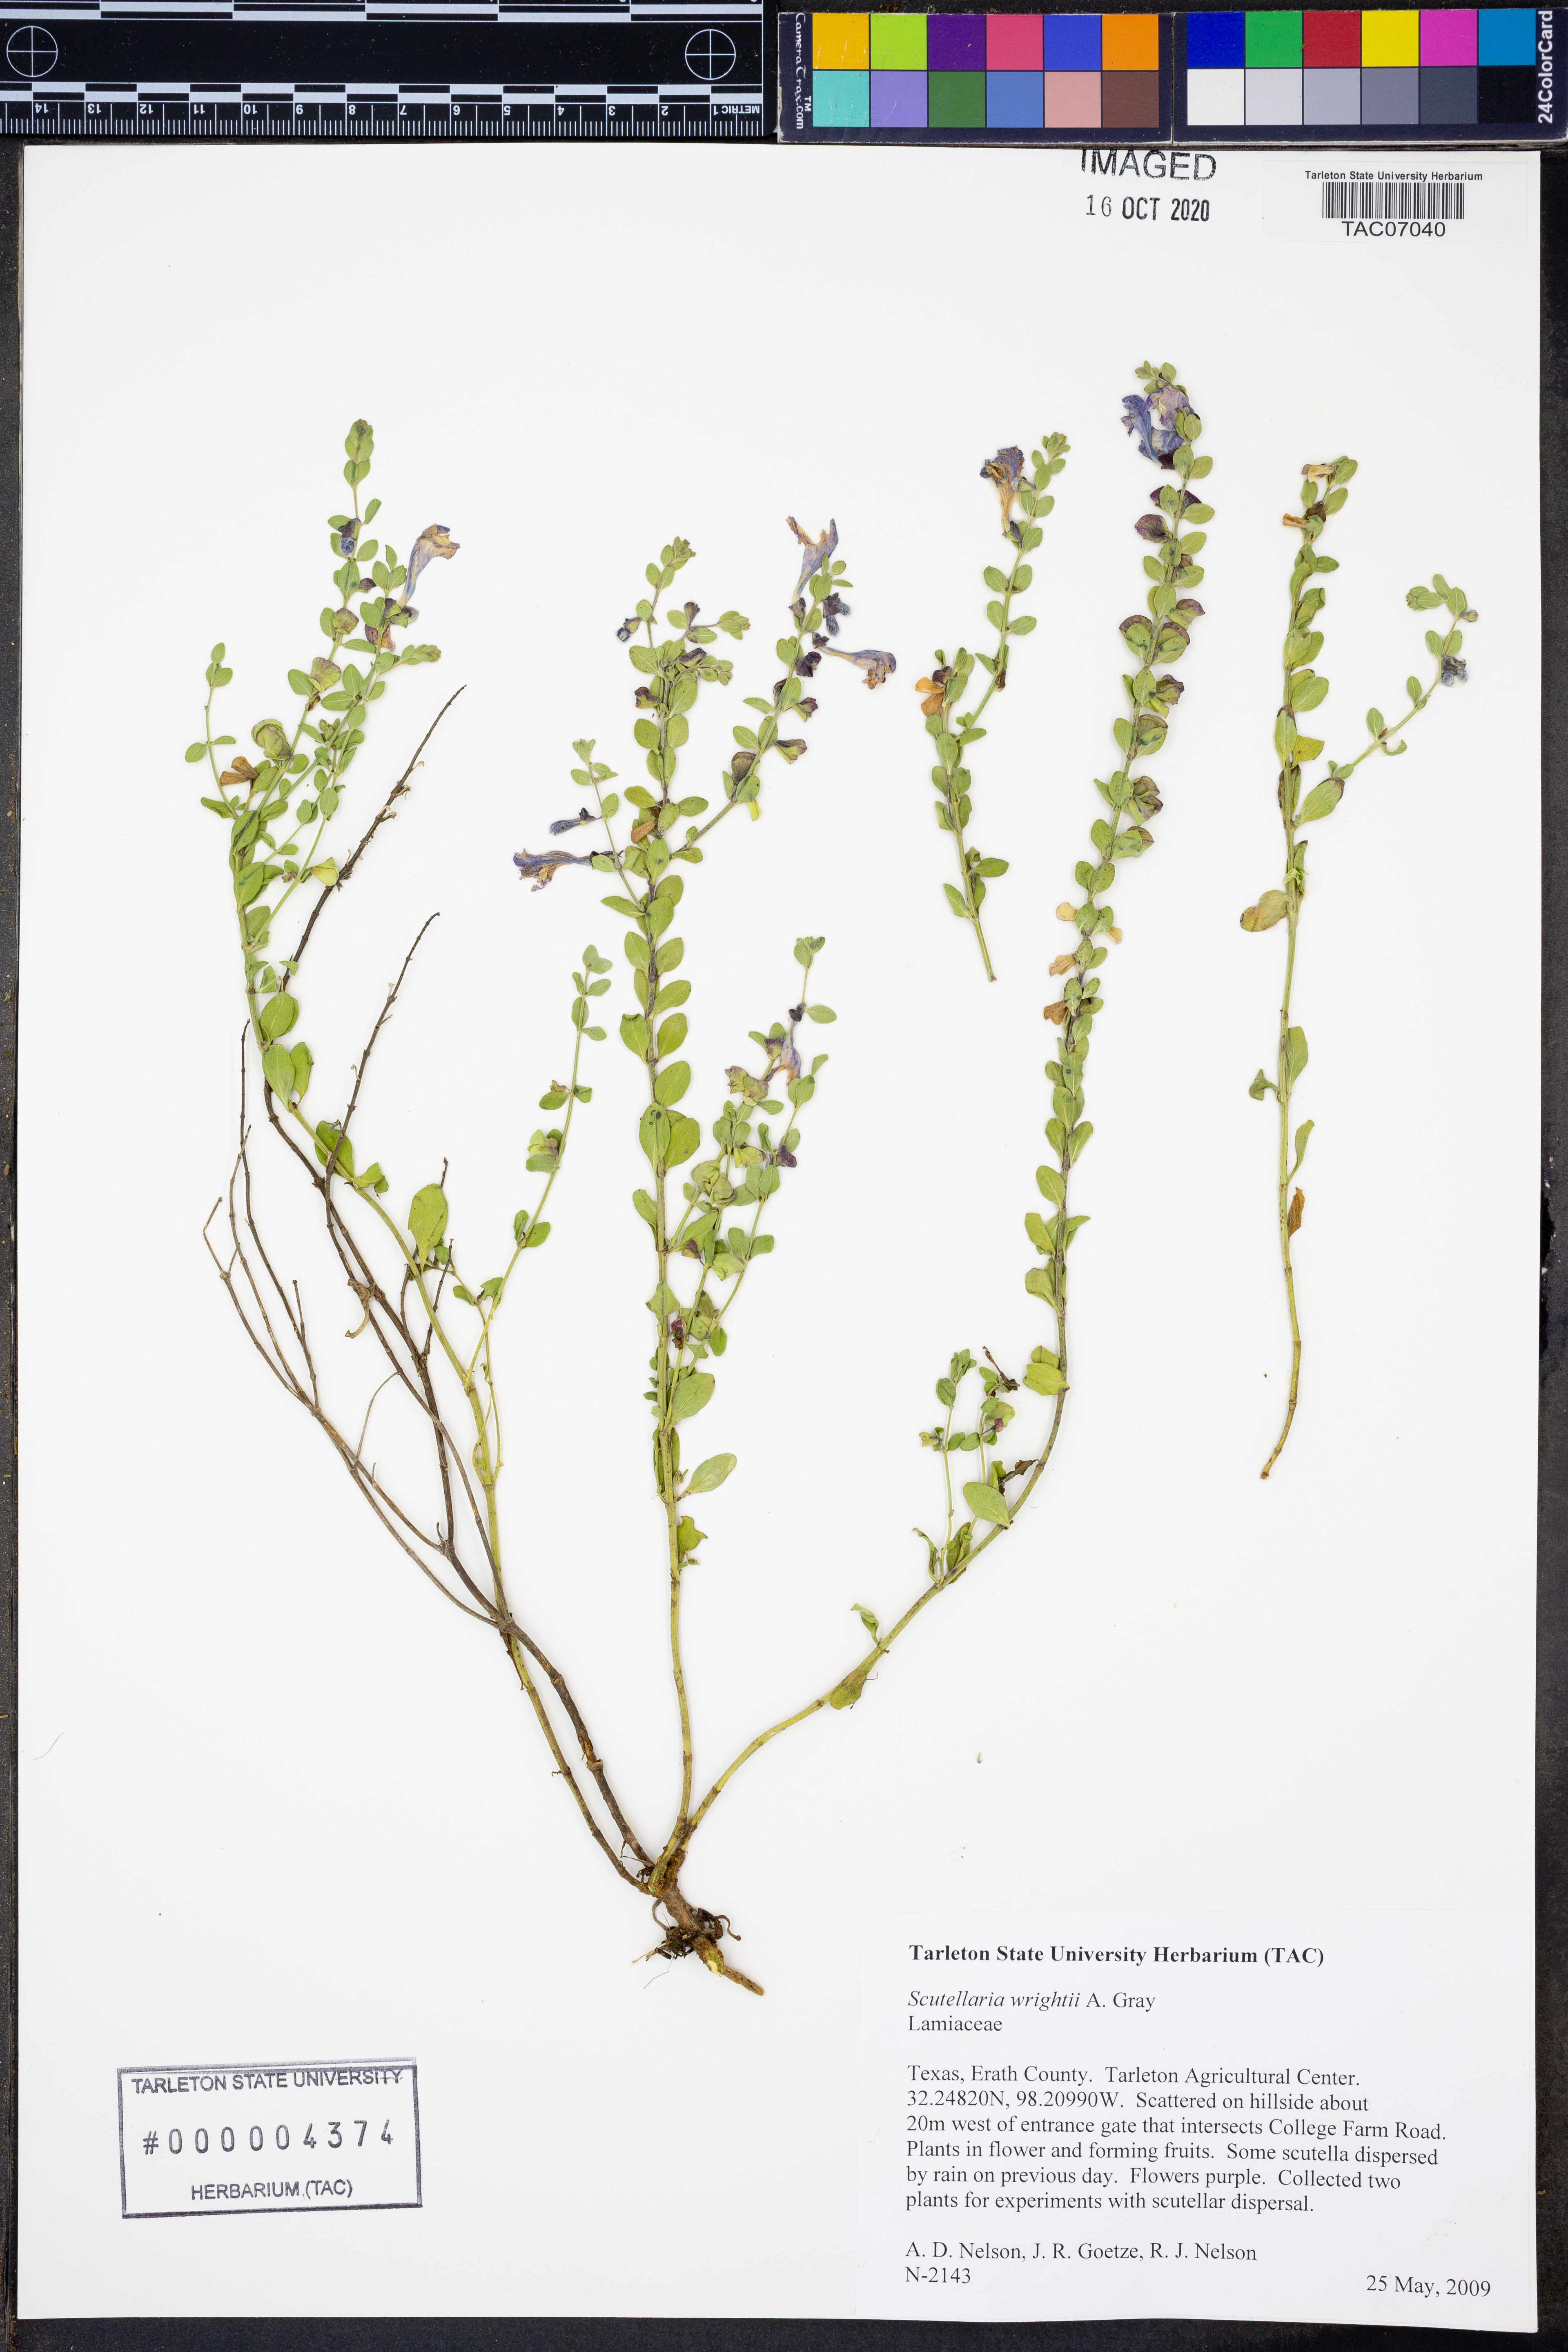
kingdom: Plantae
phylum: Tracheophyta
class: Magnoliopsida
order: Lamiales
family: Lamiaceae
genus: Scutellaria
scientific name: Scutellaria wrightii
